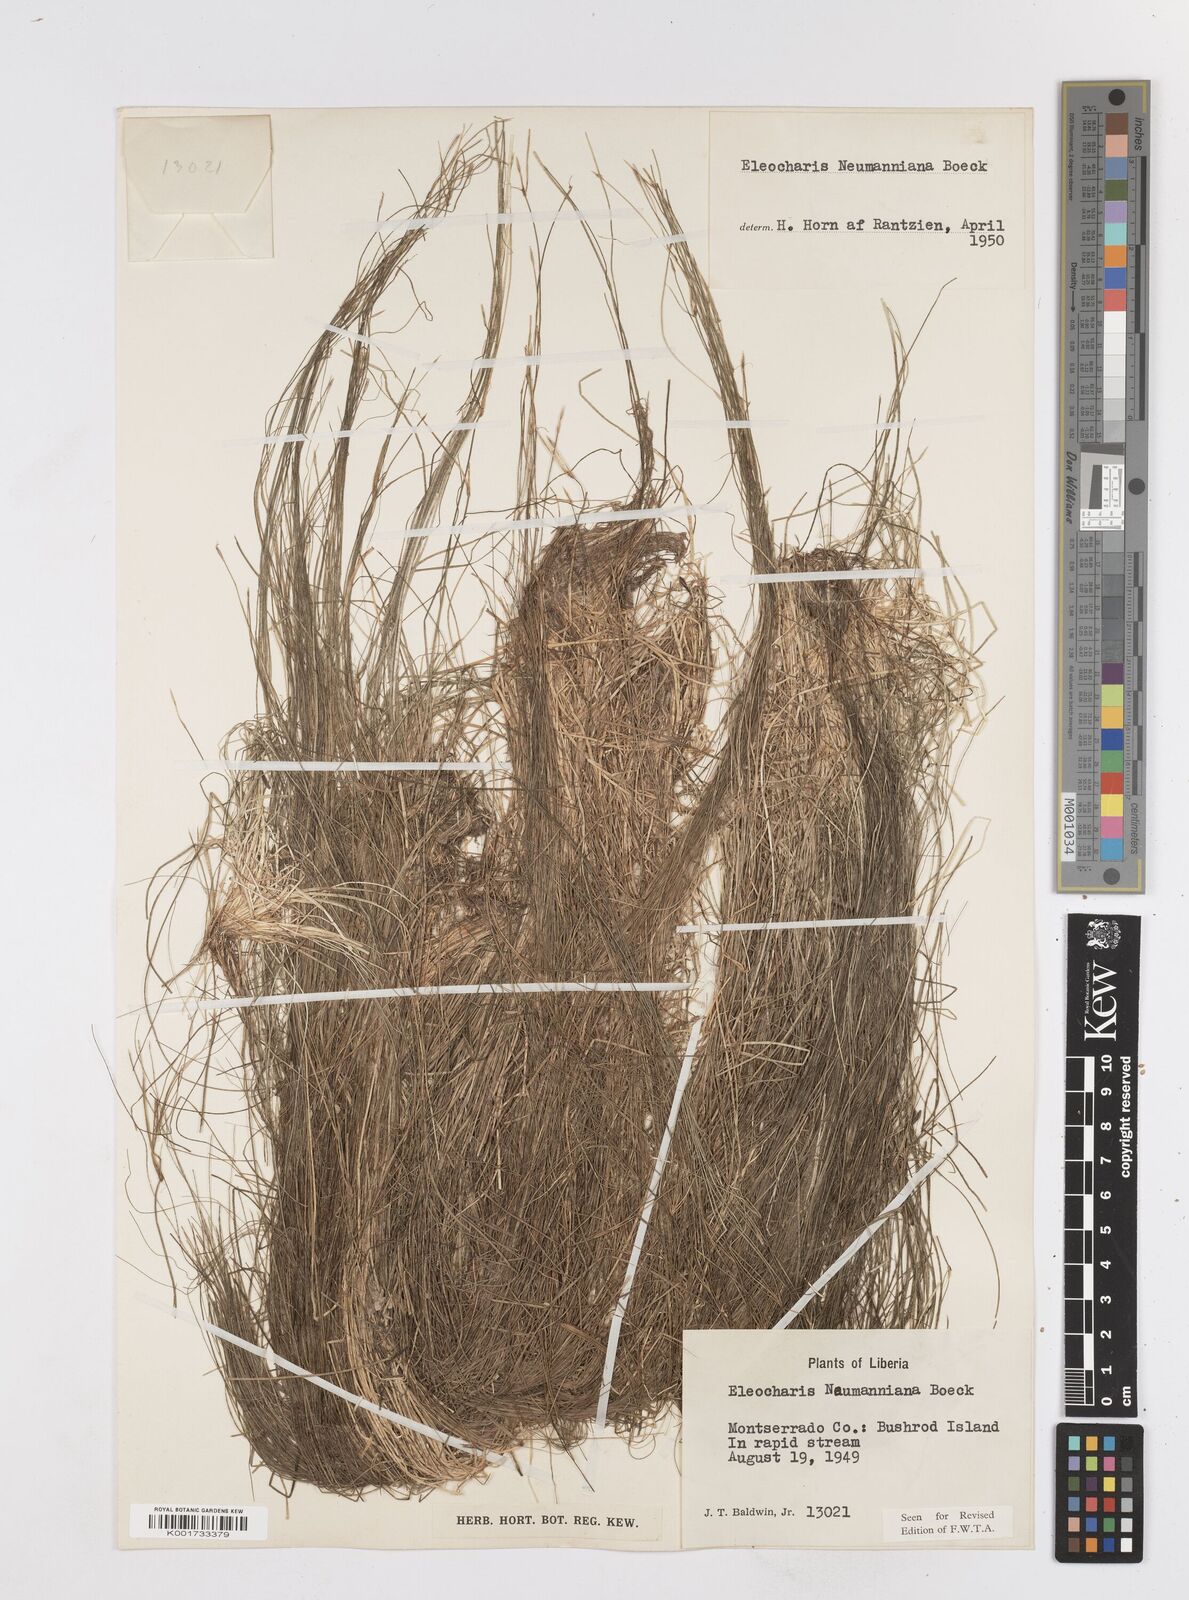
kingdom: Plantae
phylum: Tracheophyta
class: Liliopsida
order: Poales
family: Cyperaceae
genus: Eleocharis
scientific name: Eleocharis naumanniana
